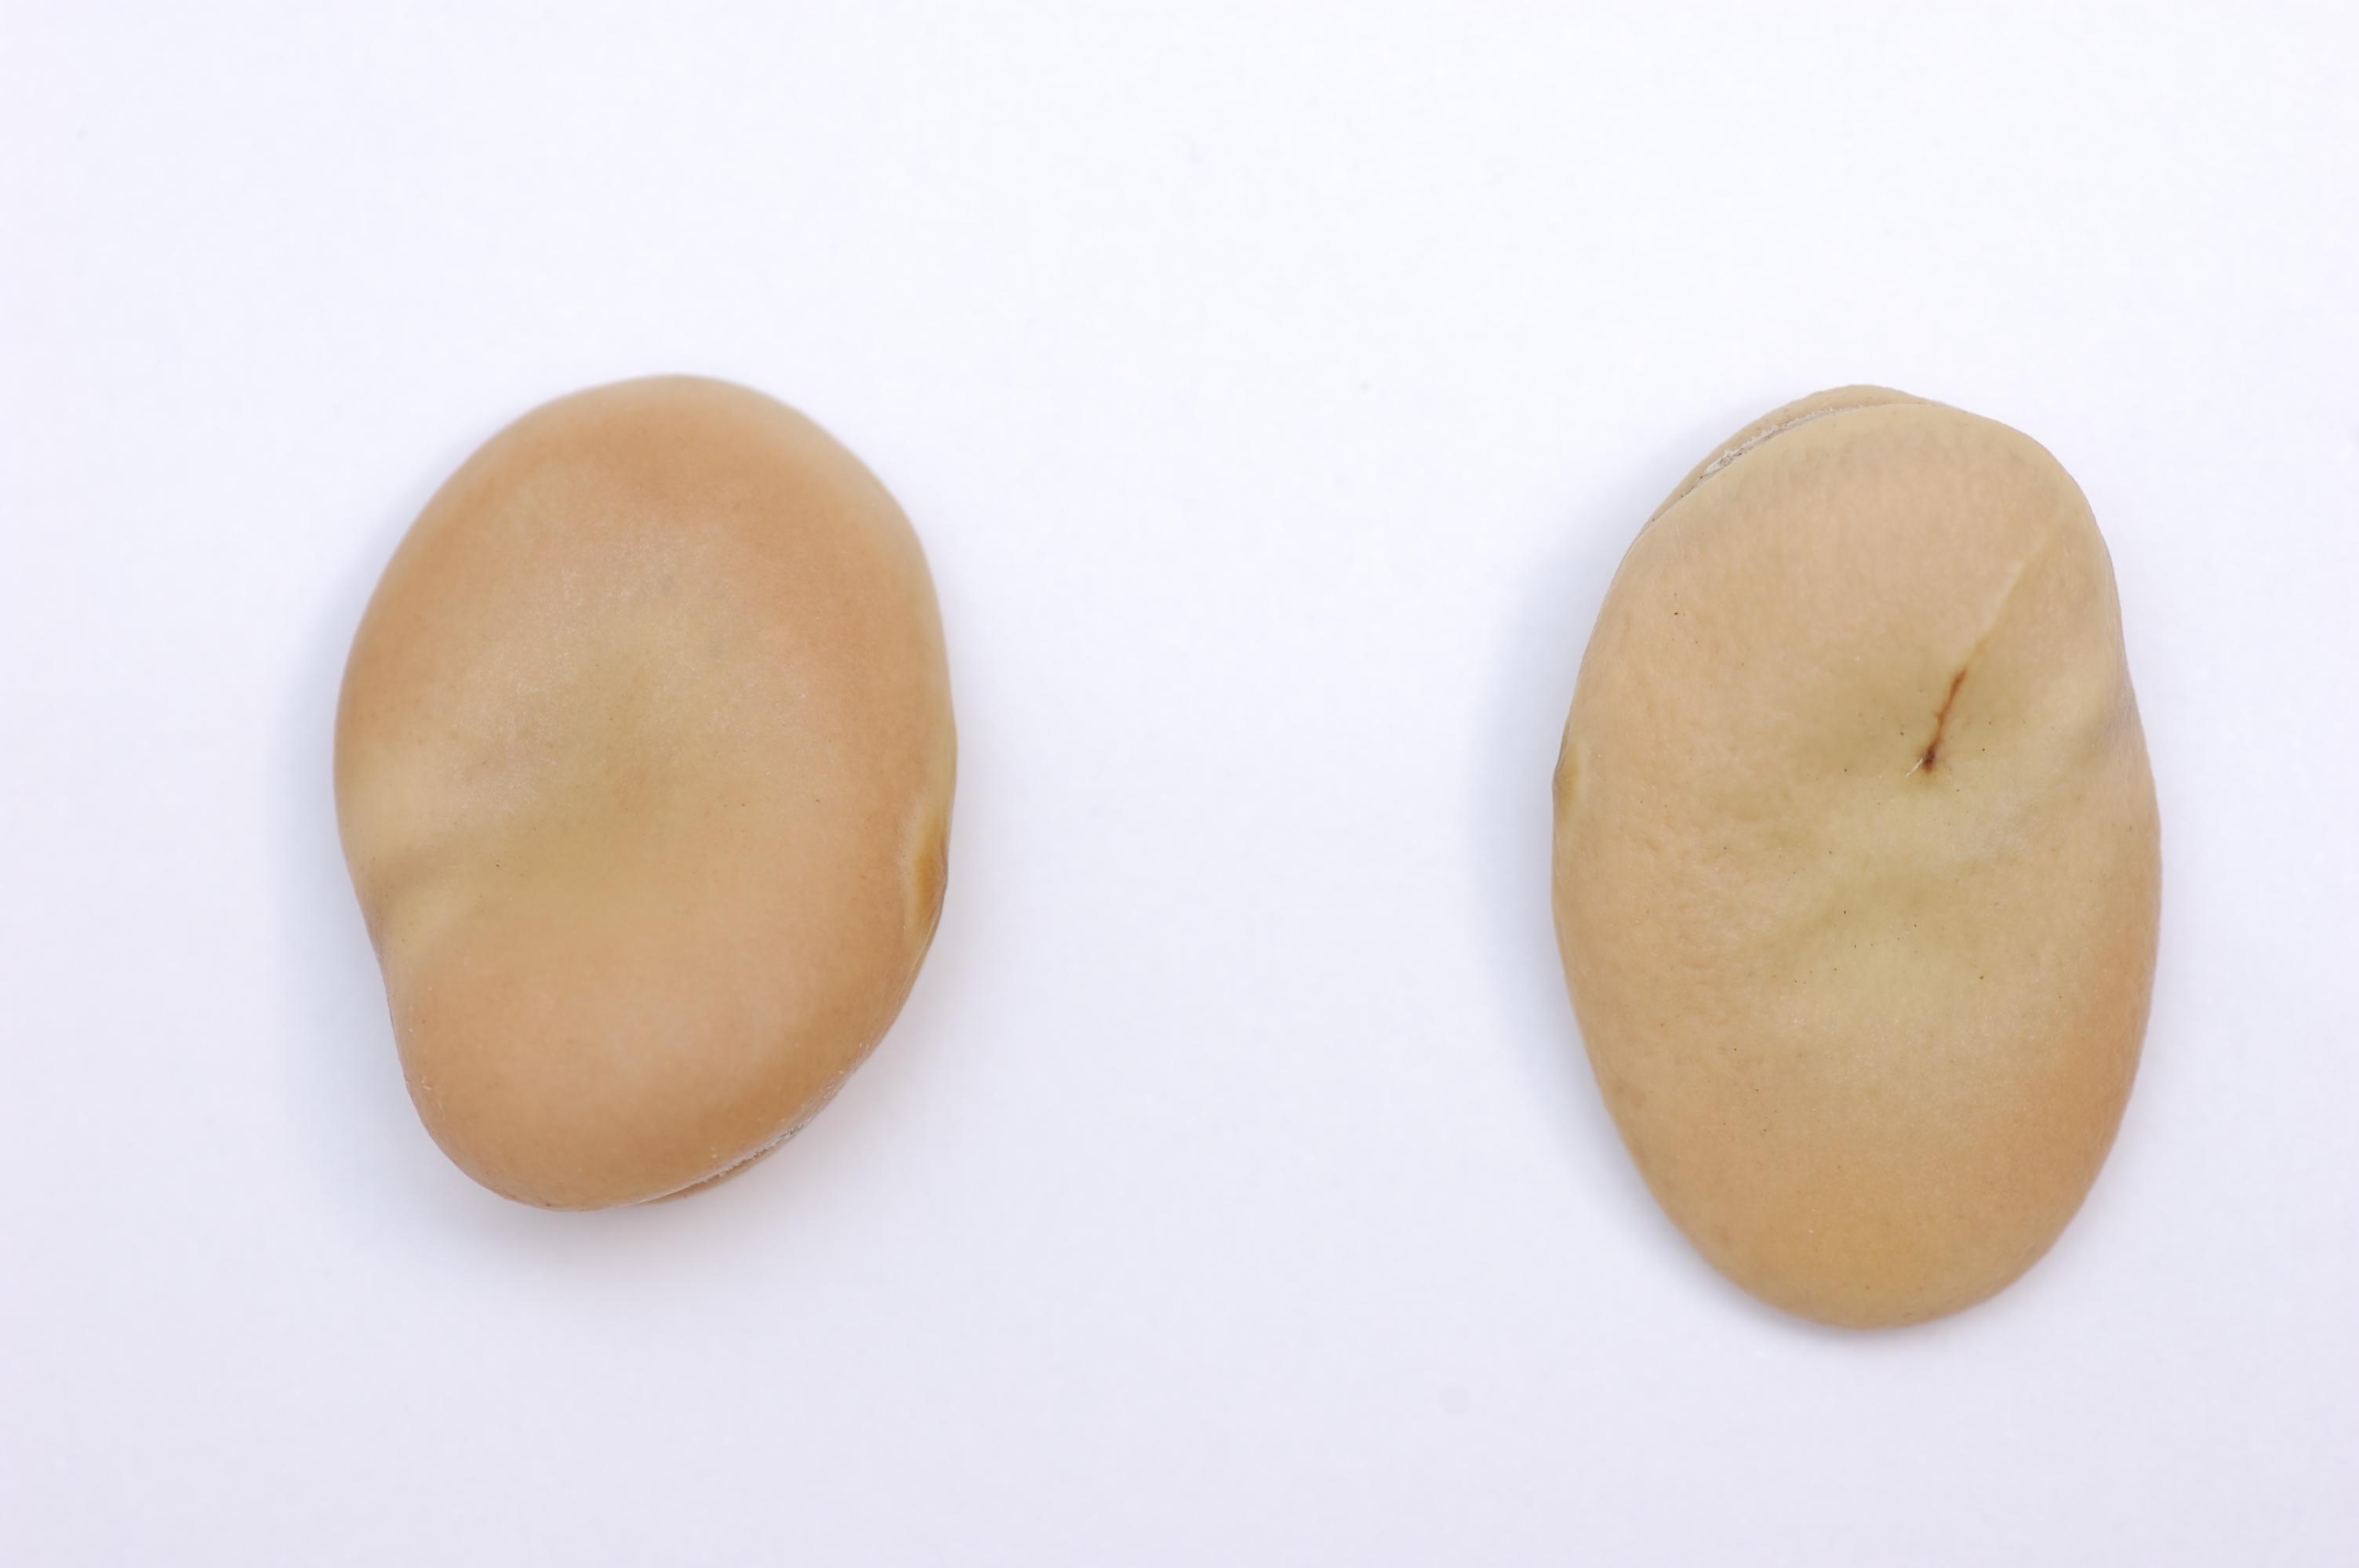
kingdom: Plantae
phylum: Tracheophyta
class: Magnoliopsida
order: Fabales
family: Fabaceae
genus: Vicia
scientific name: Vicia faba
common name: Broad bean
